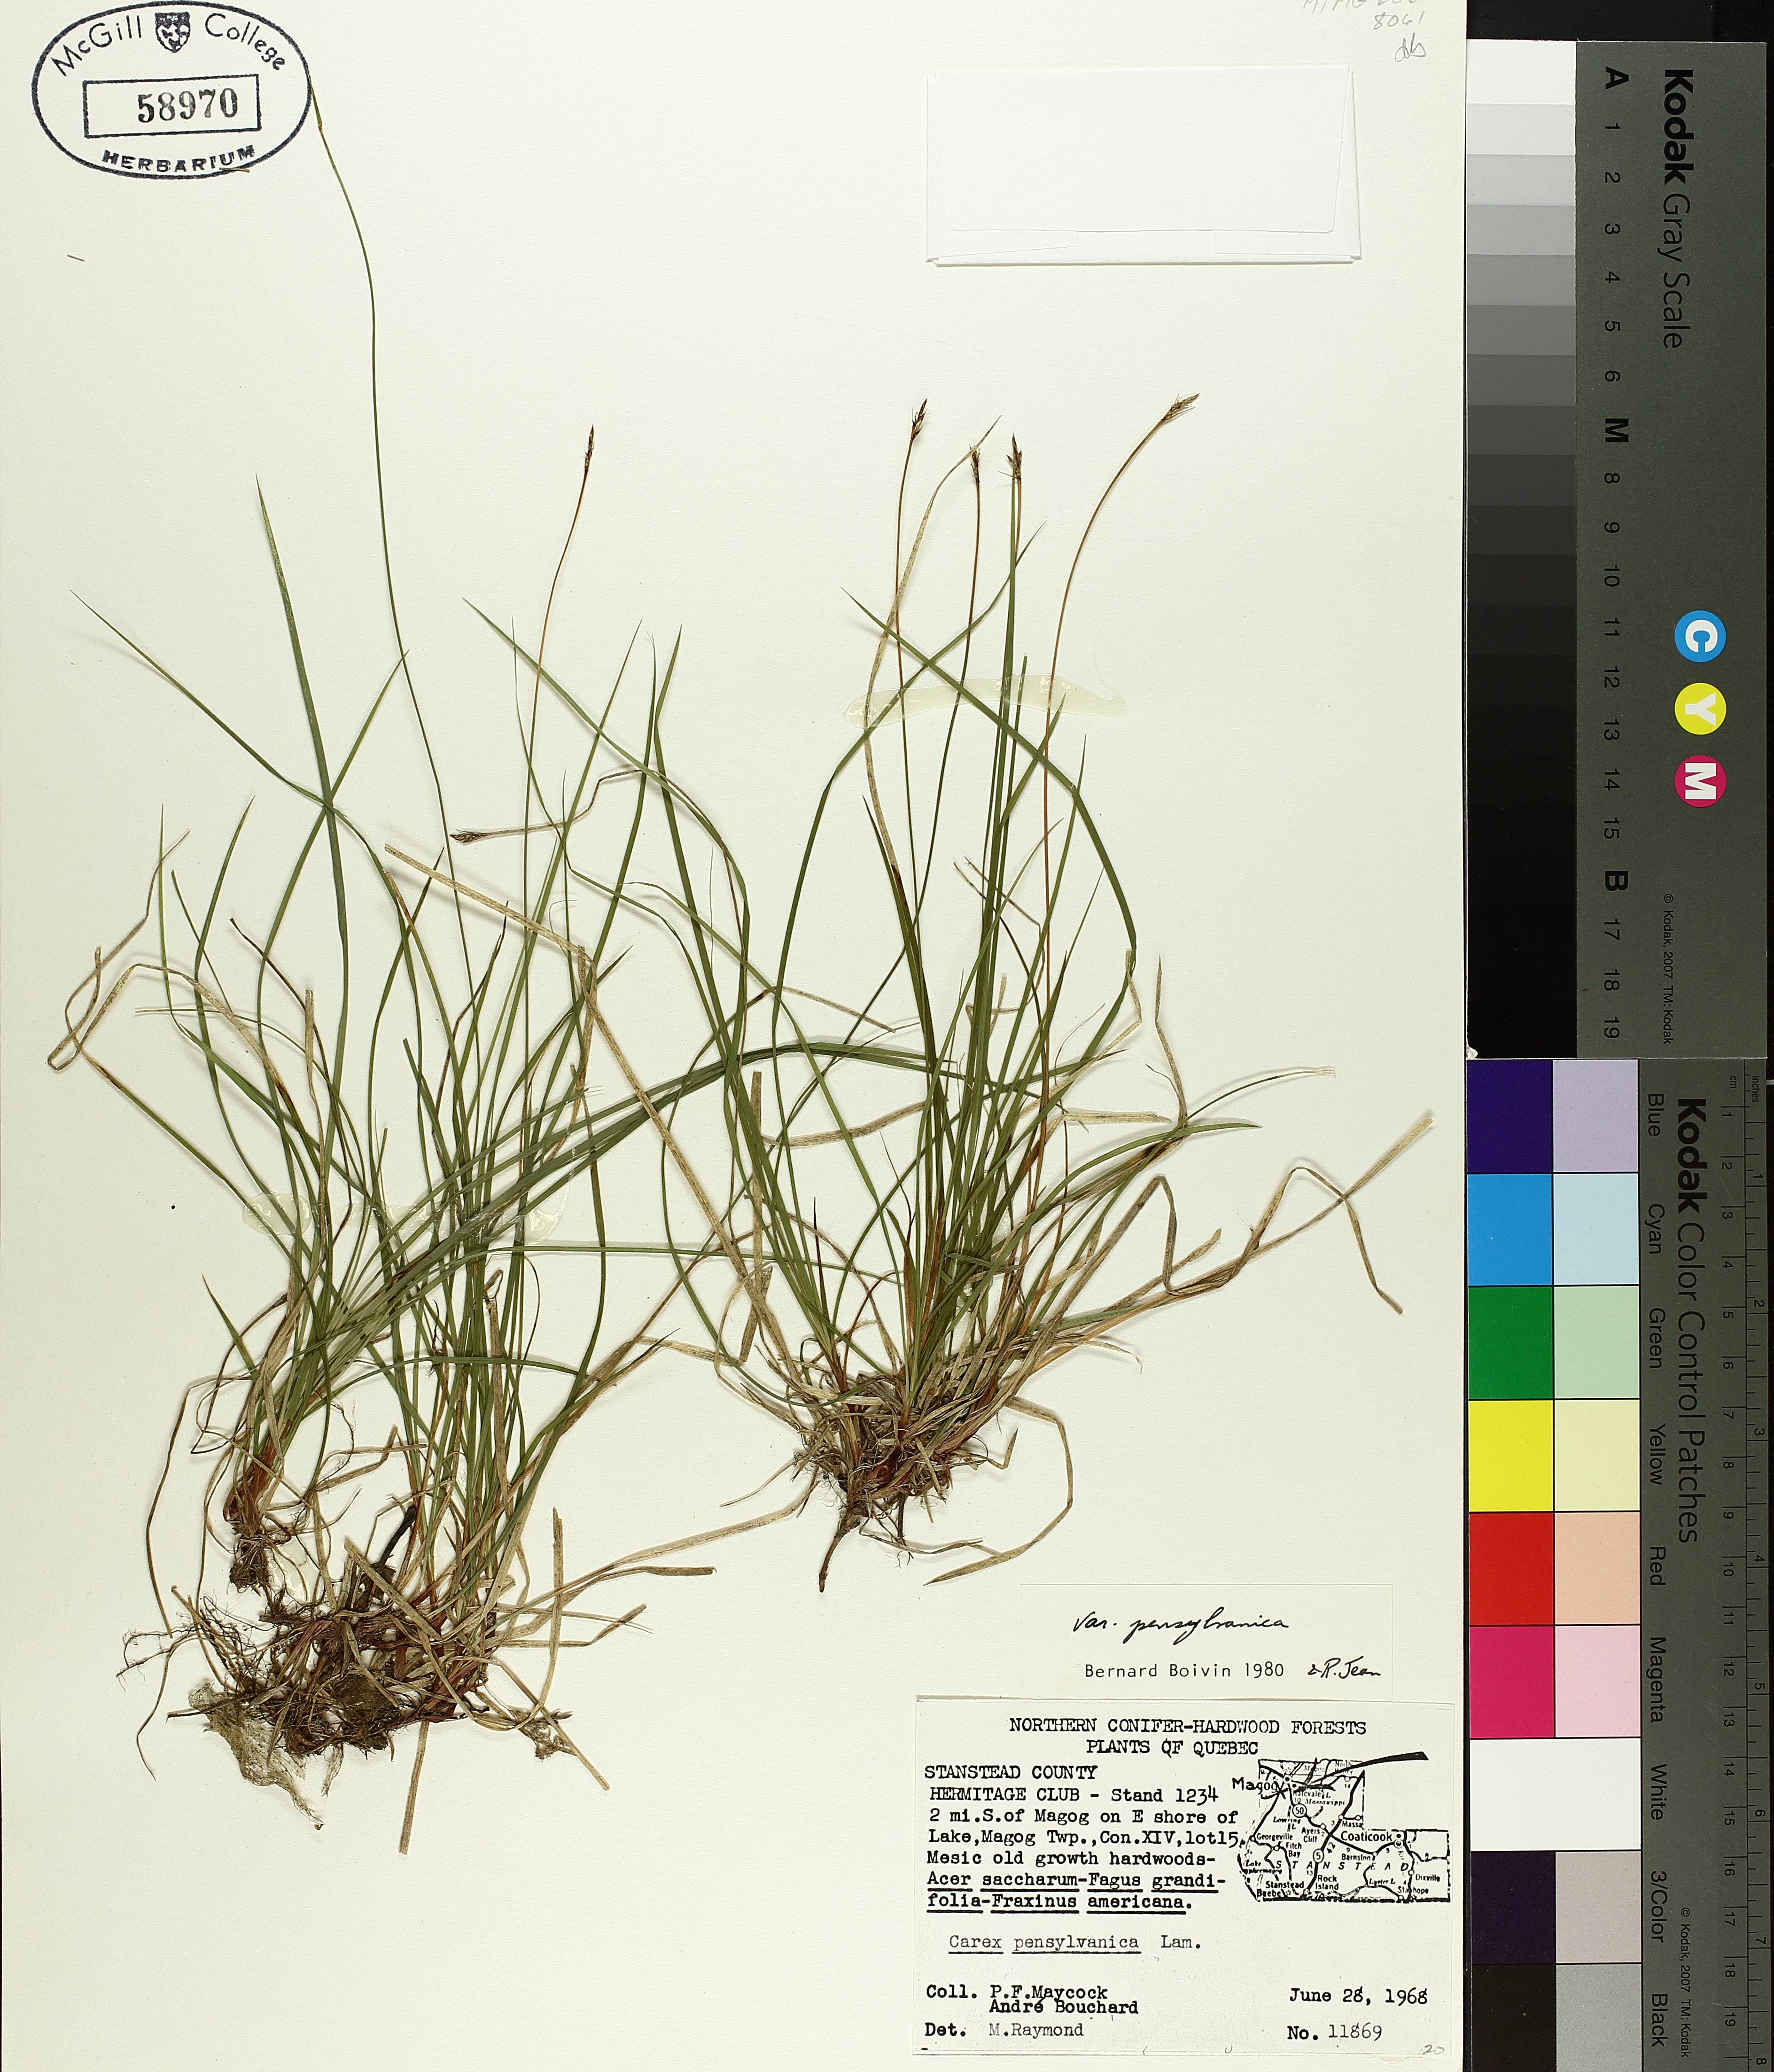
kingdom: Plantae
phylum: Tracheophyta
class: Liliopsida
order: Poales
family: Cyperaceae
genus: Carex
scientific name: Carex pensylvanica
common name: Common oak sedge
